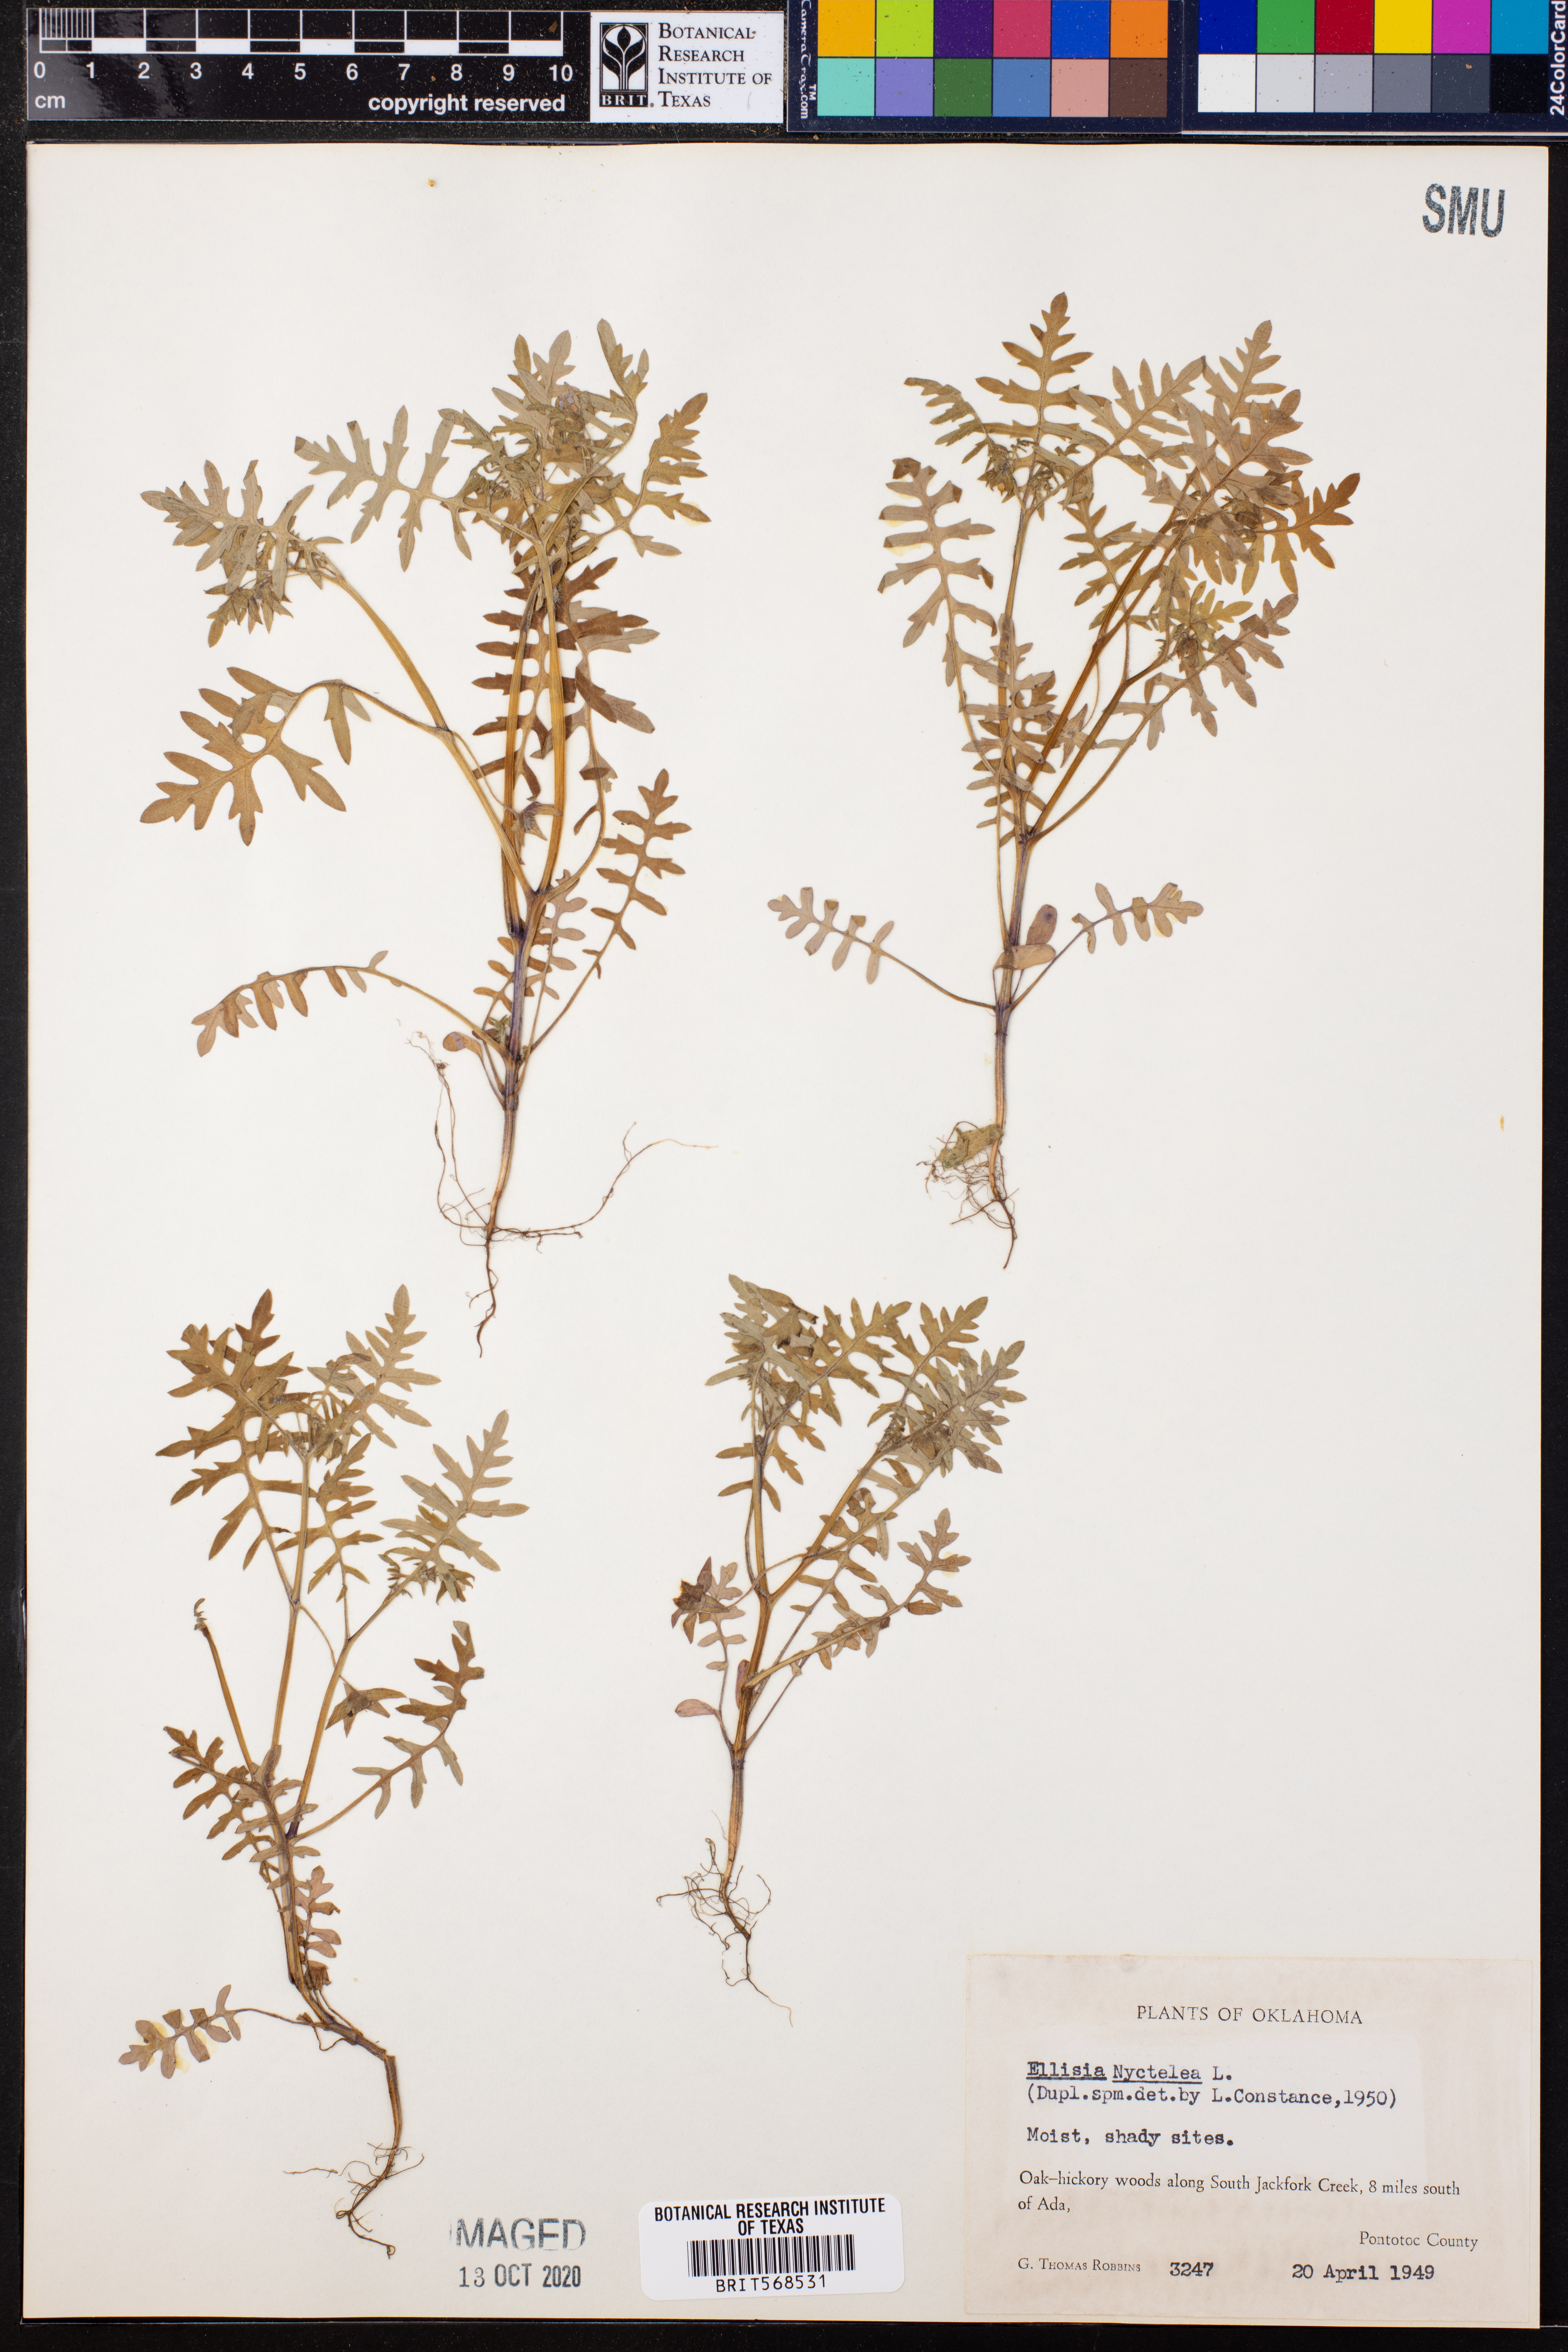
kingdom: Plantae
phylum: Tracheophyta
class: Magnoliopsida
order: Boraginales
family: Hydrophyllaceae
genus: Ellisia
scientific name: Ellisia nyctelea
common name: Aunt lucy
